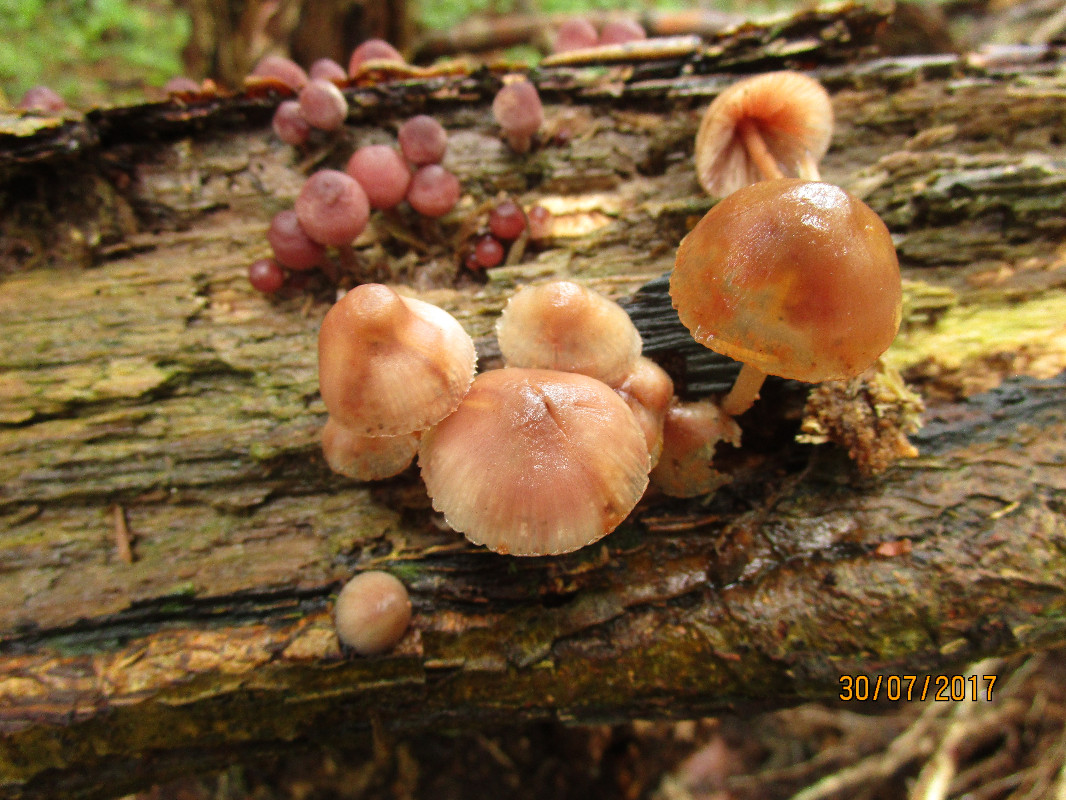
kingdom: Fungi
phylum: Basidiomycota
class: Agaricomycetes
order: Agaricales
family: Mycenaceae
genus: Mycena
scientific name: Mycena haematopus
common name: blødende huesvamp
